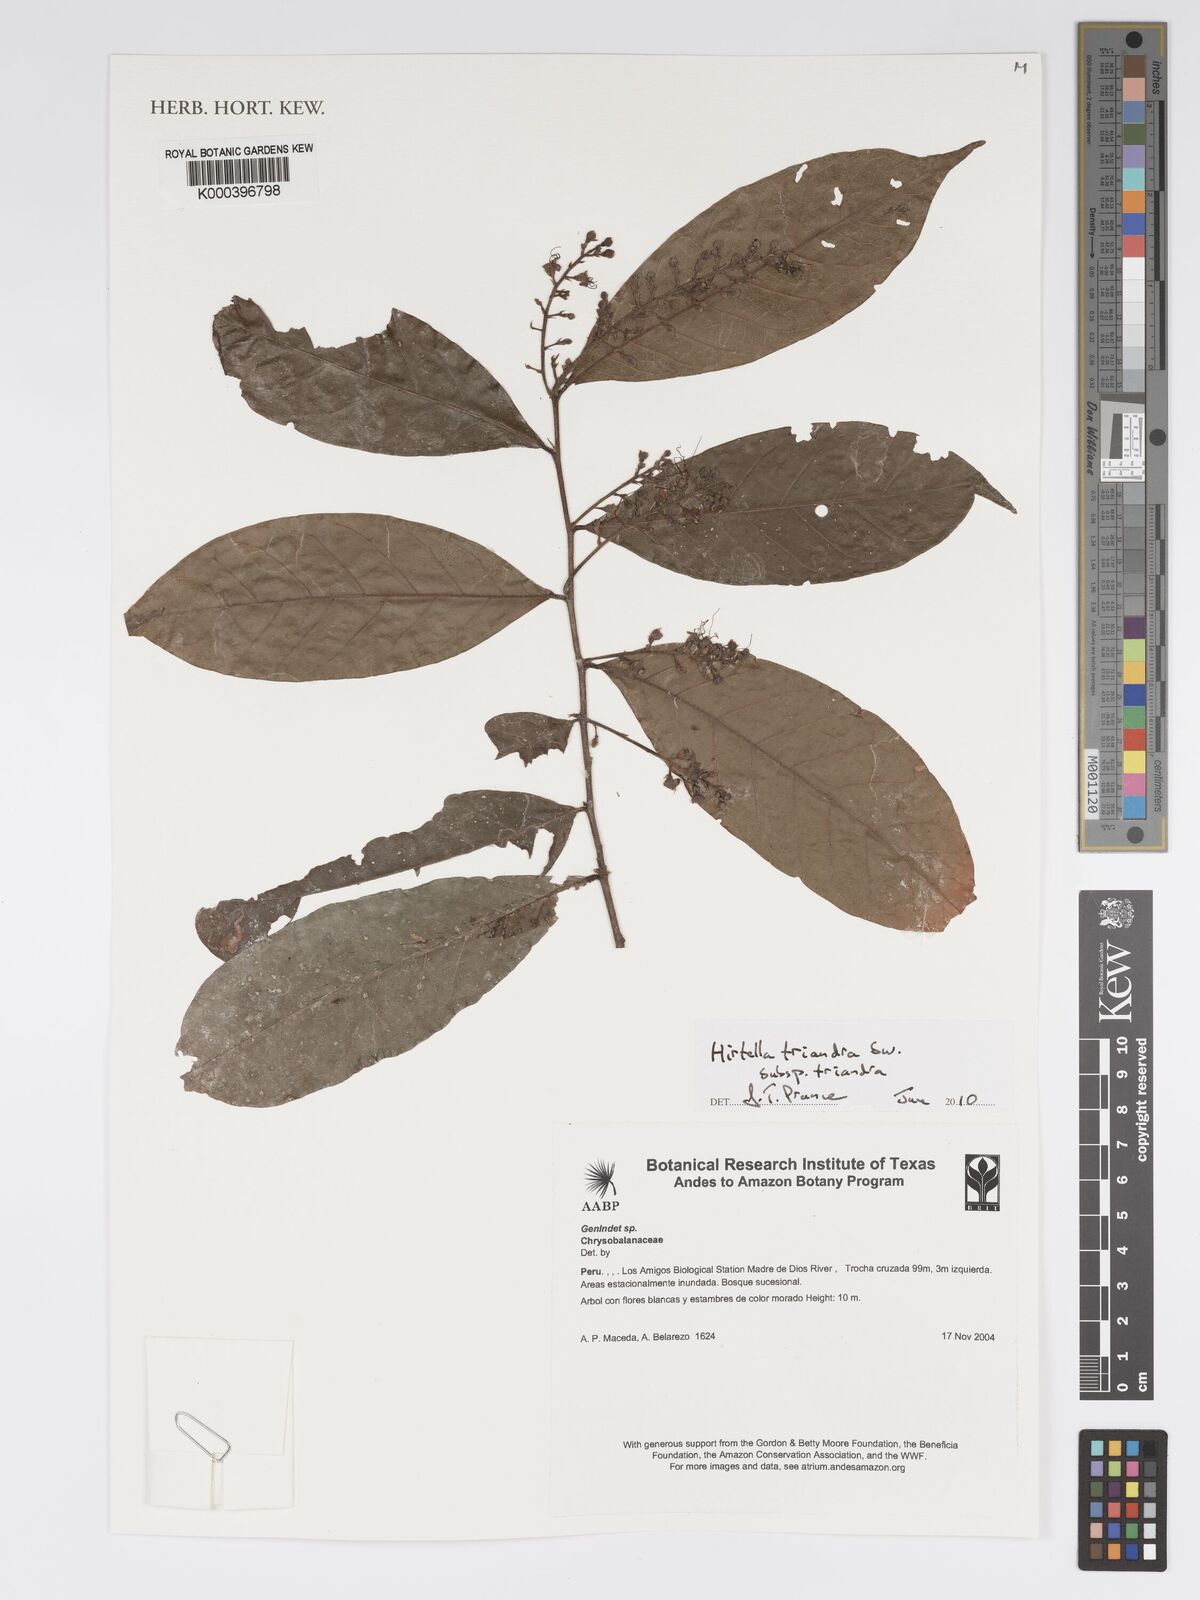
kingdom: Plantae
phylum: Tracheophyta
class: Magnoliopsida
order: Malpighiales
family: Chrysobalanaceae
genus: Hirtella
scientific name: Hirtella triandra
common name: Hairy plum
